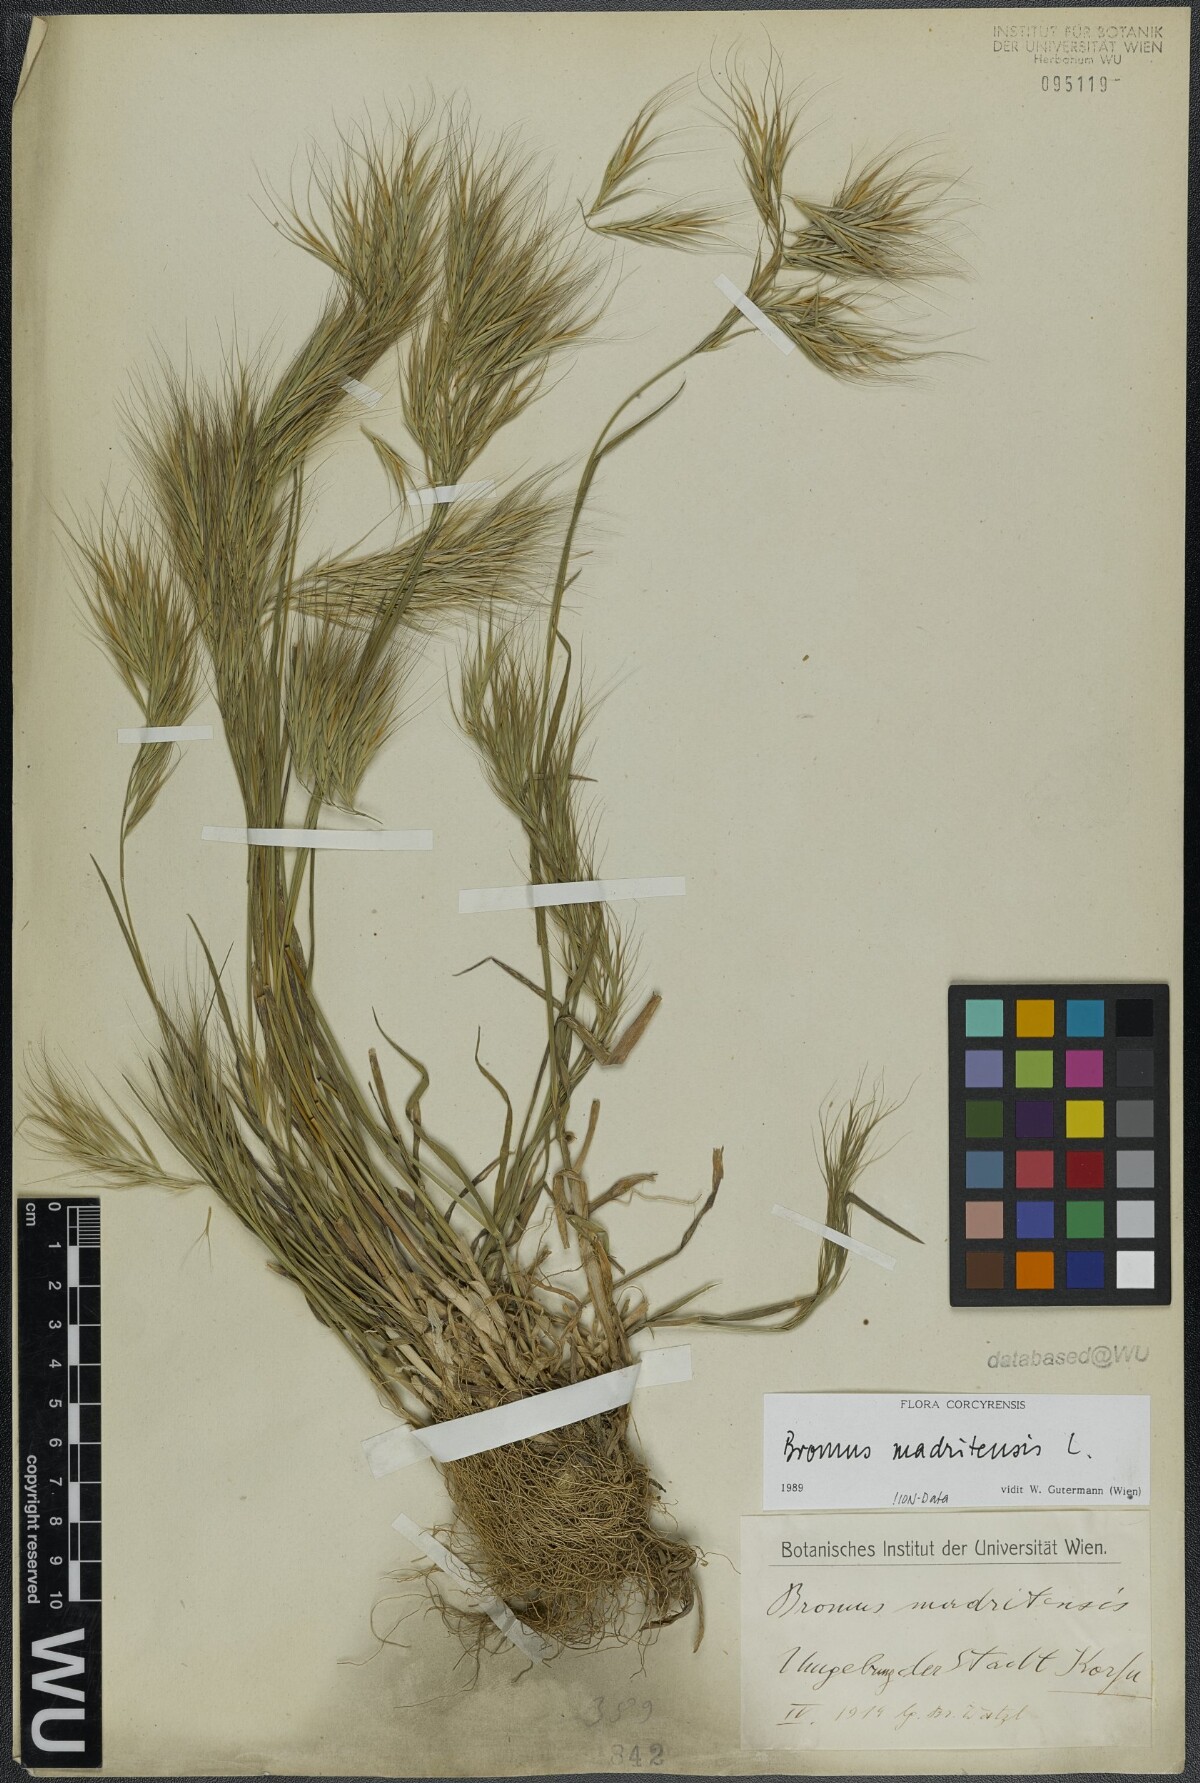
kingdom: Plantae
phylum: Tracheophyta
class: Liliopsida
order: Poales
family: Poaceae
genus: Bromus
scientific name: Bromus madritensis
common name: Compact brome
